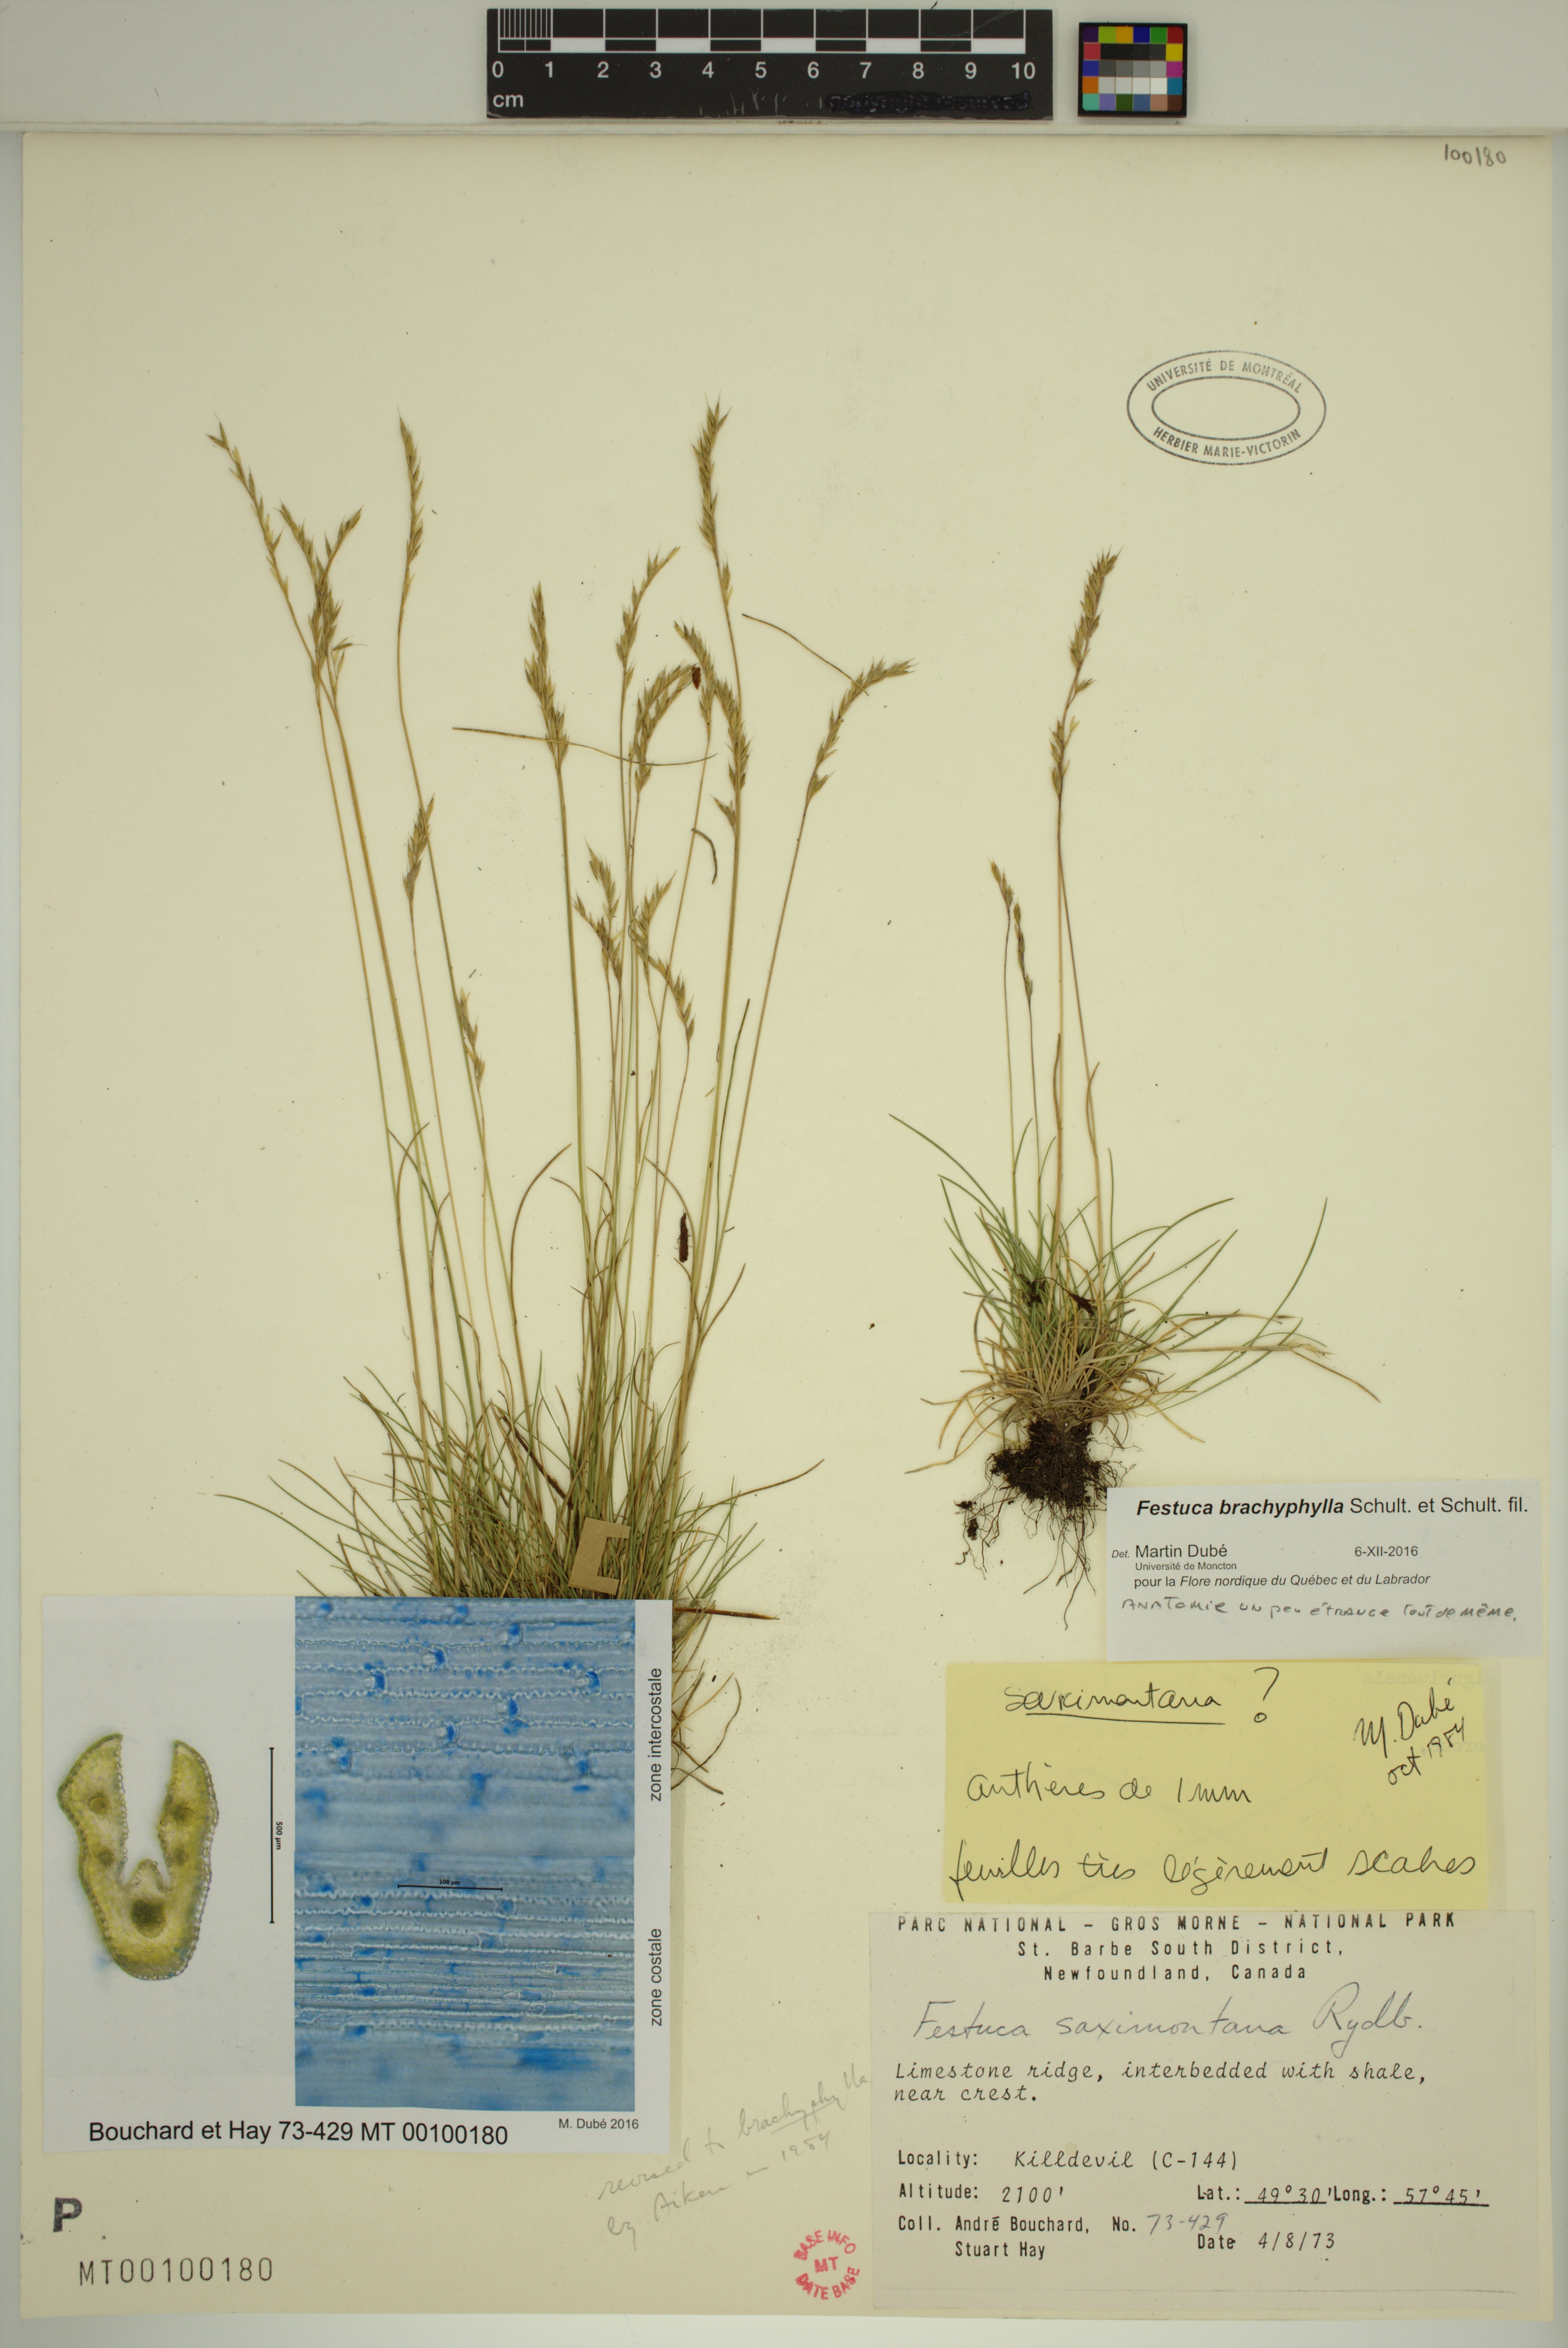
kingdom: Plantae
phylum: Tracheophyta
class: Liliopsida
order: Poales
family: Poaceae
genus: Festuca
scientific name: Festuca brachyphylla
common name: Alpine fescue
